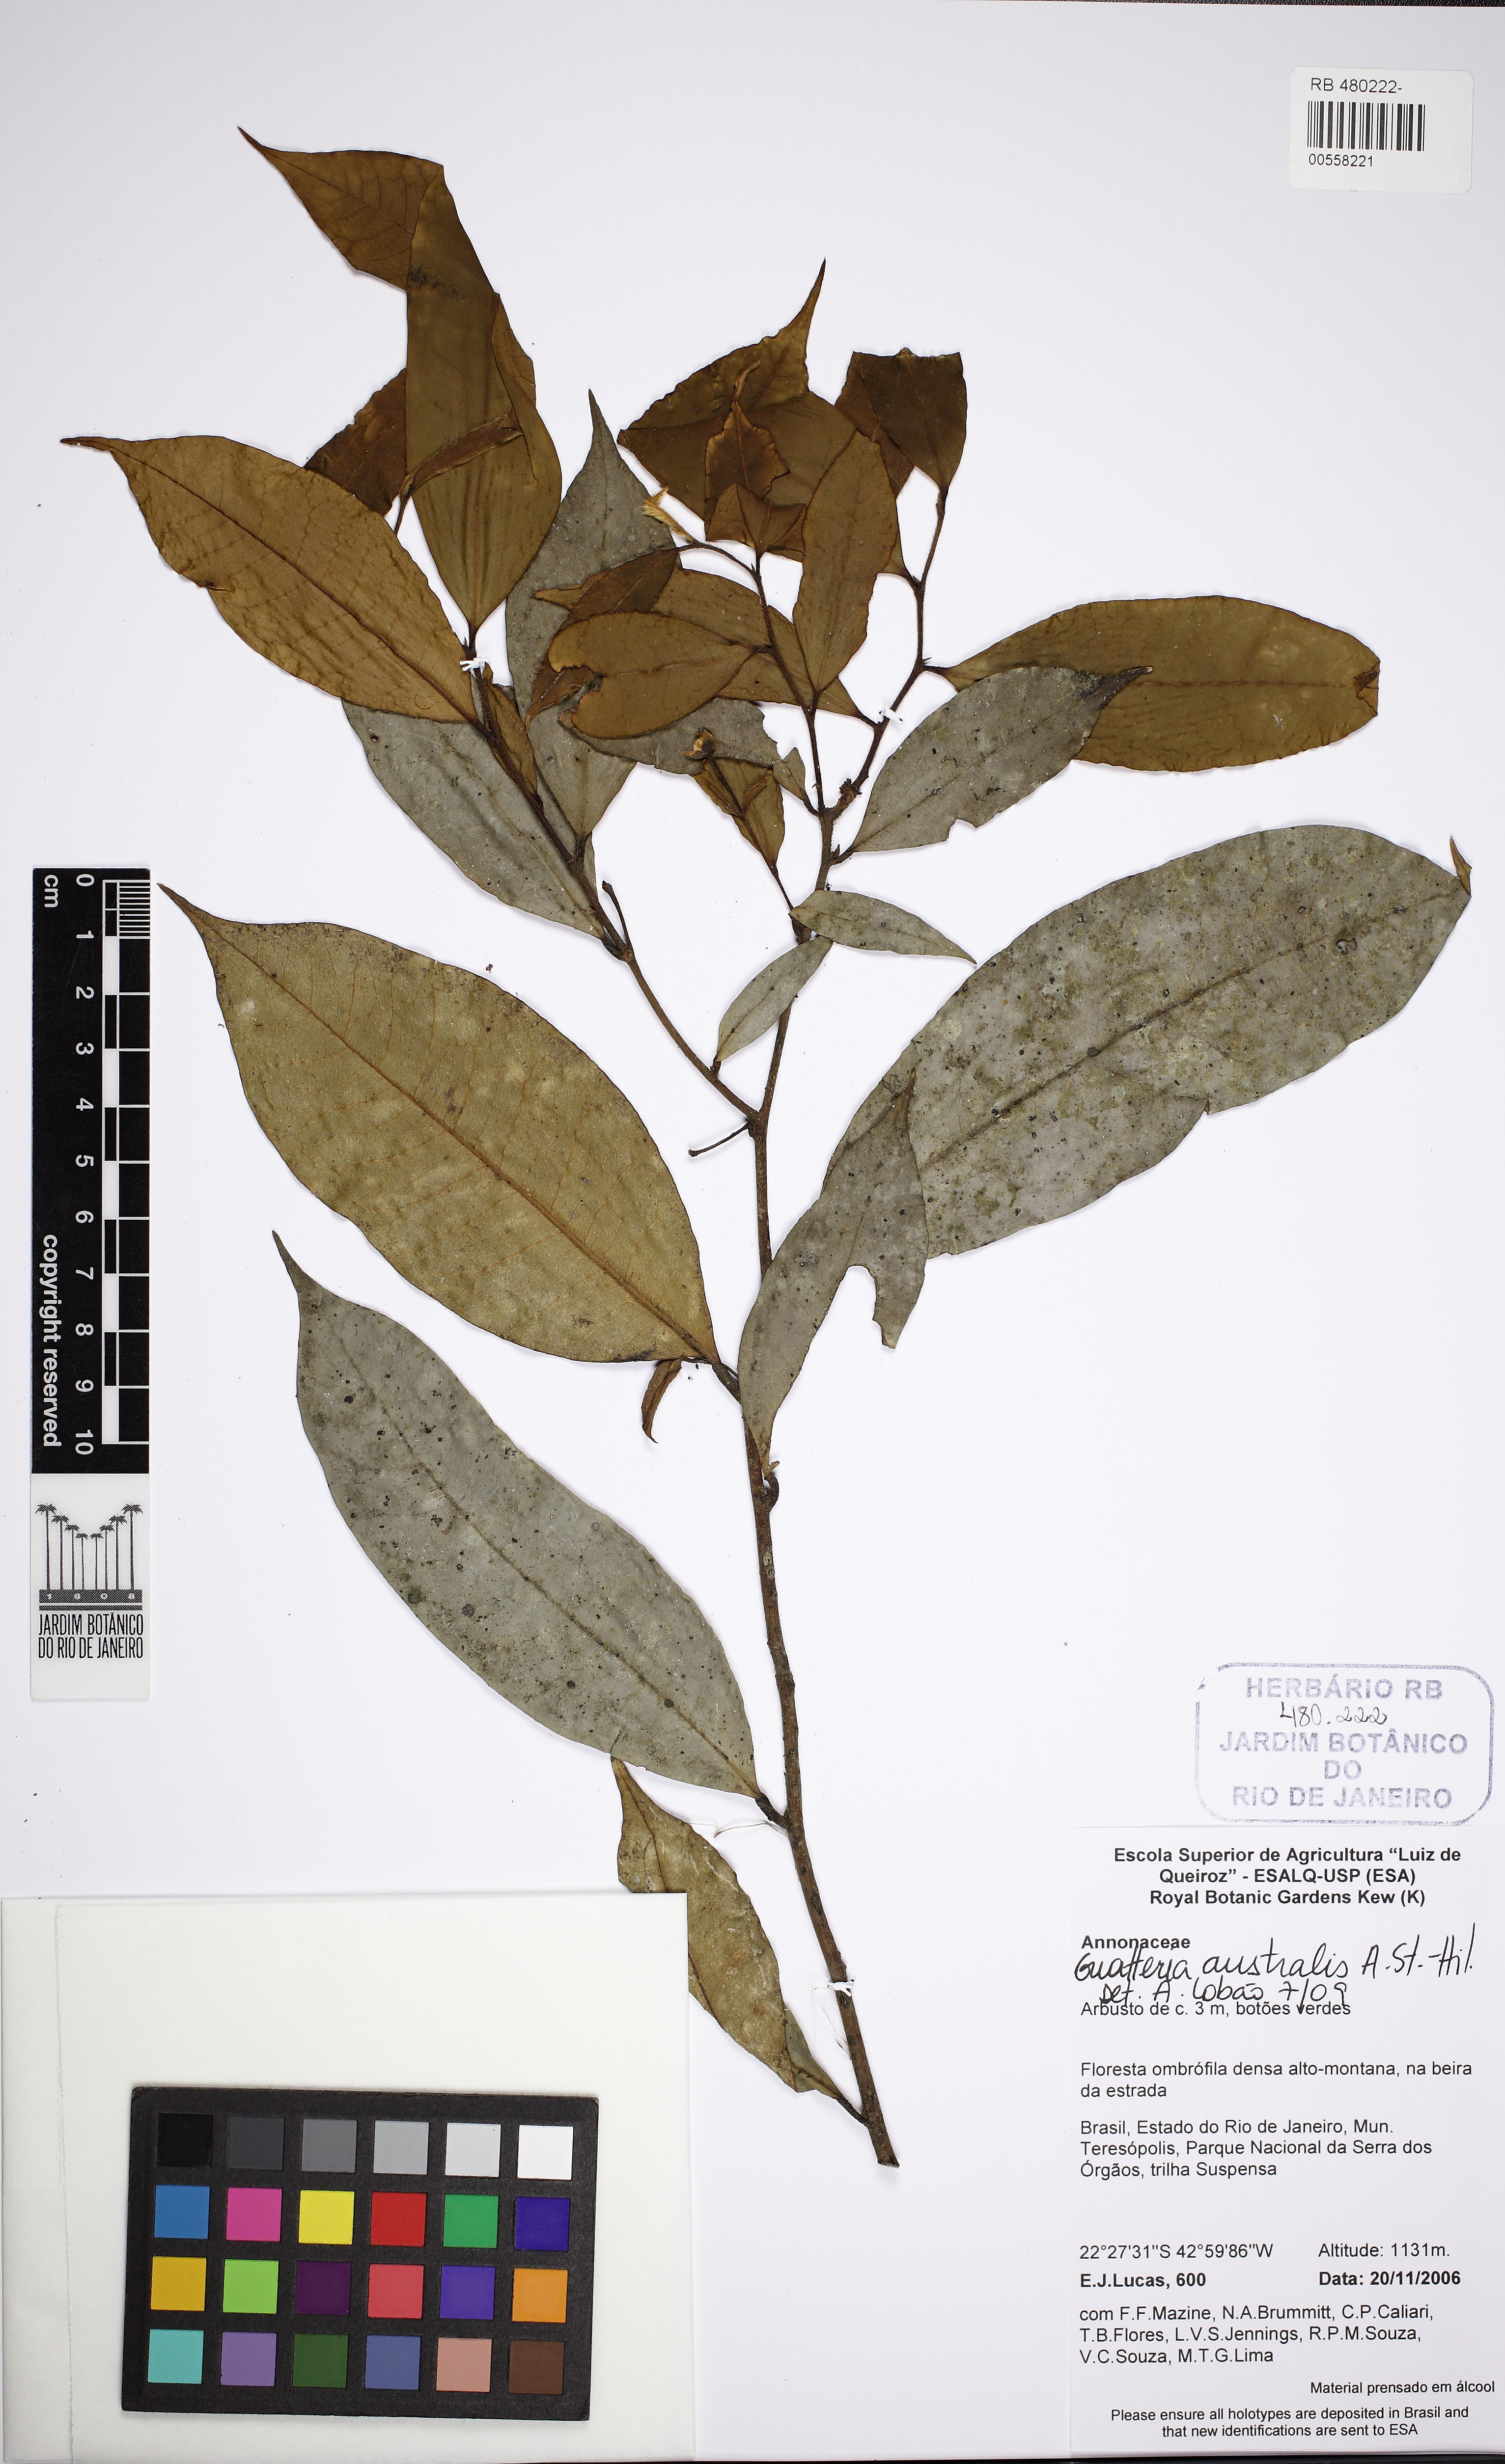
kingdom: Plantae
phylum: Tracheophyta
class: Magnoliopsida
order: Magnoliales
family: Annonaceae
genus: Guatteria
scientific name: Guatteria australis
